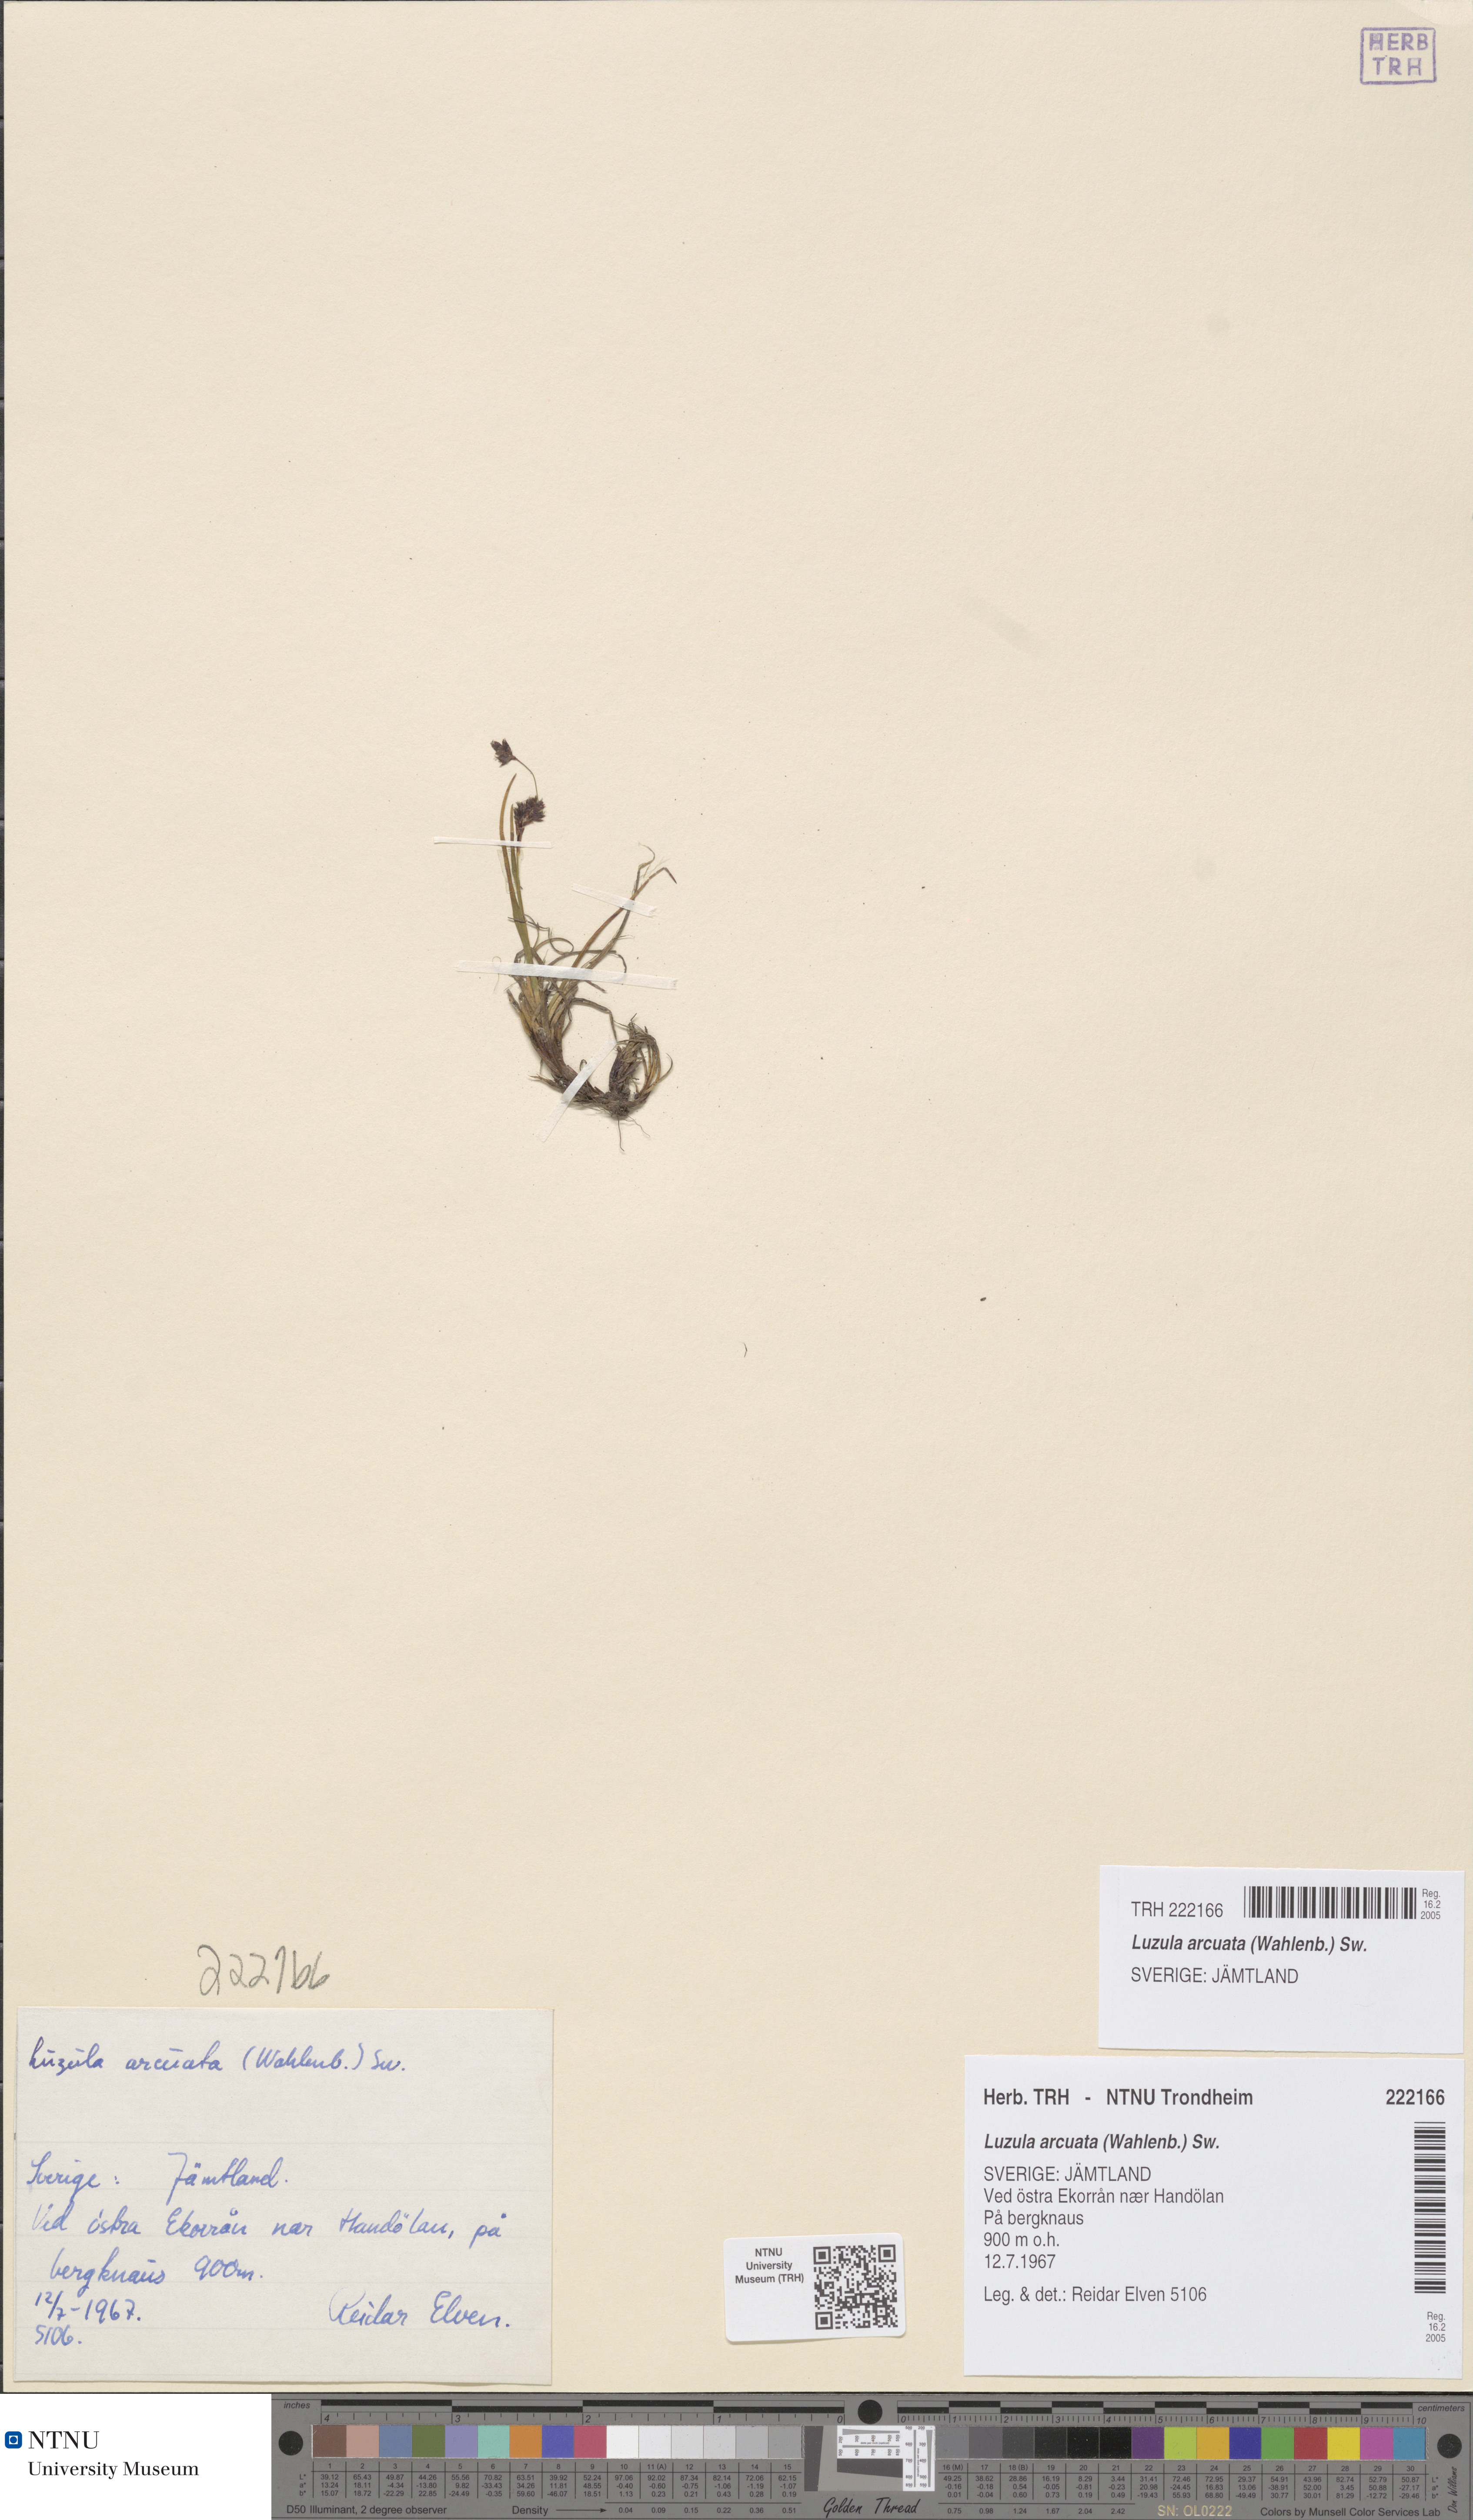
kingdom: Plantae
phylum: Tracheophyta
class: Liliopsida
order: Poales
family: Juncaceae
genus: Luzula
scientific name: Luzula arcuata
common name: Curved wood-rush
